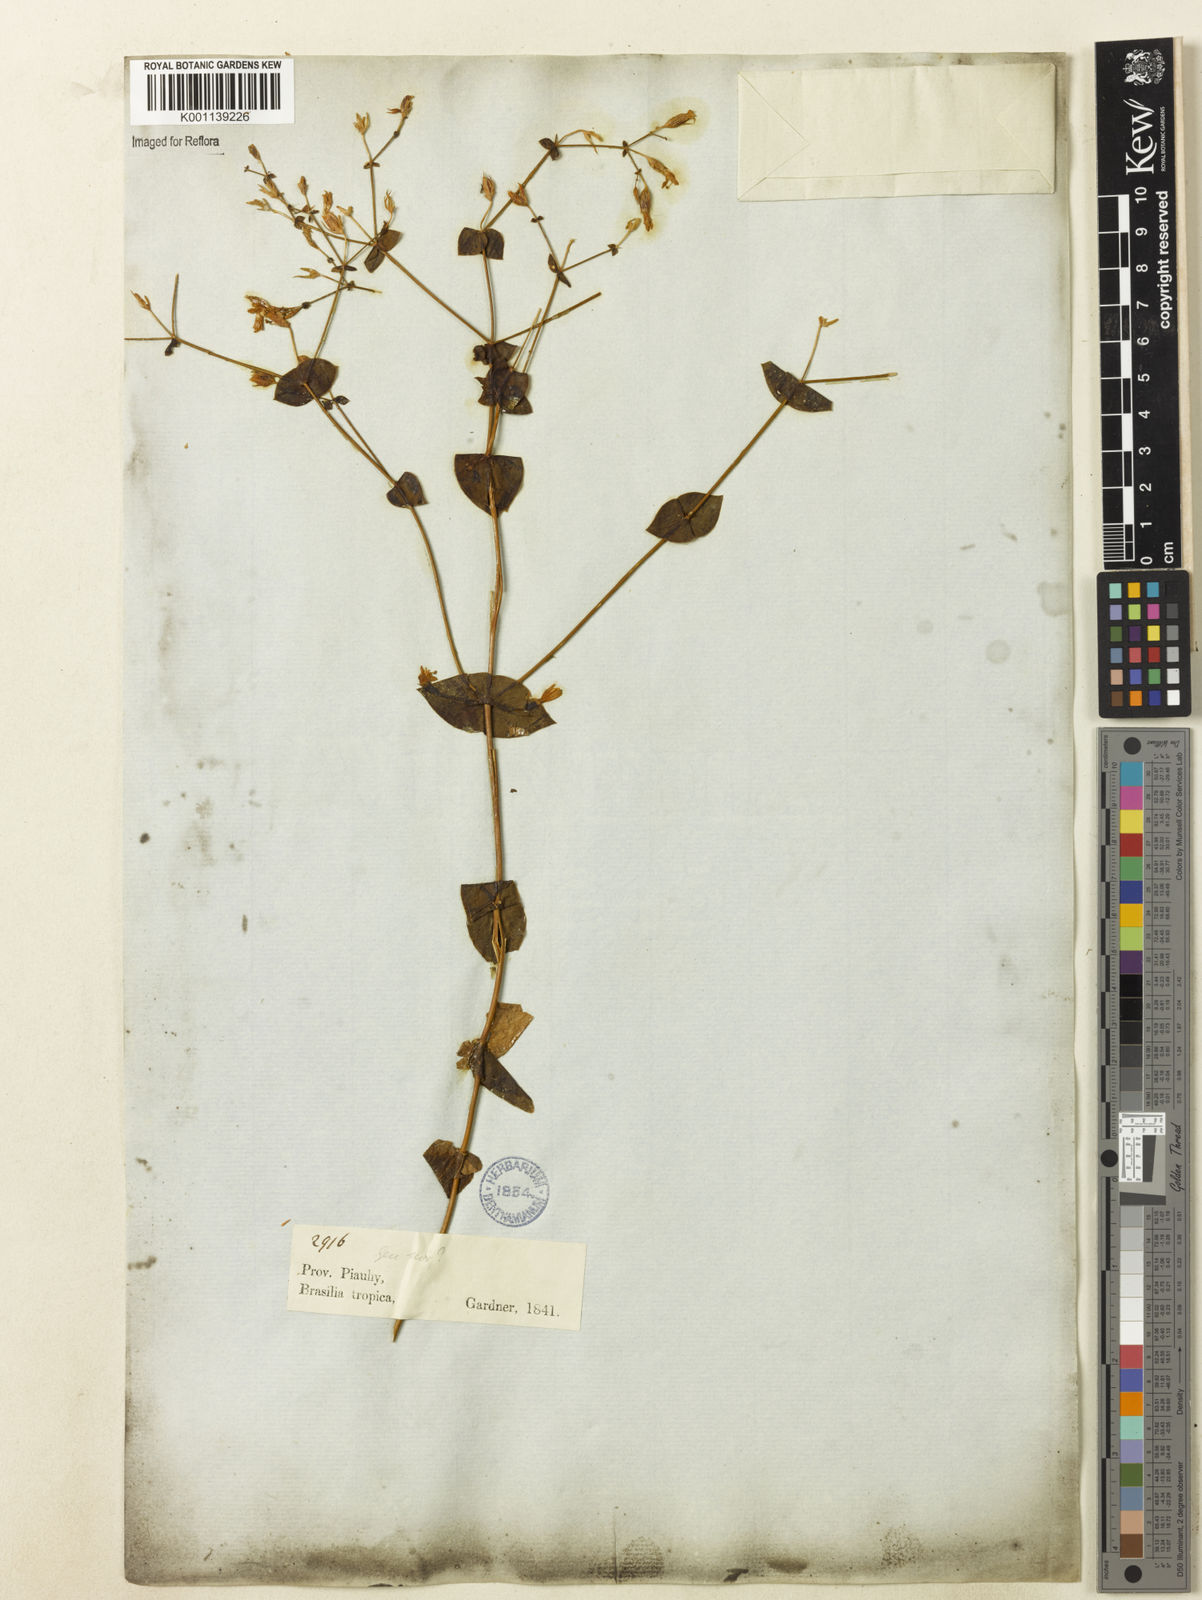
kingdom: Plantae
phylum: Tracheophyta
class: Magnoliopsida
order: Gentianales
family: Gentianaceae
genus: Symphyllophyton
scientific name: Symphyllophyton caprifolioides
